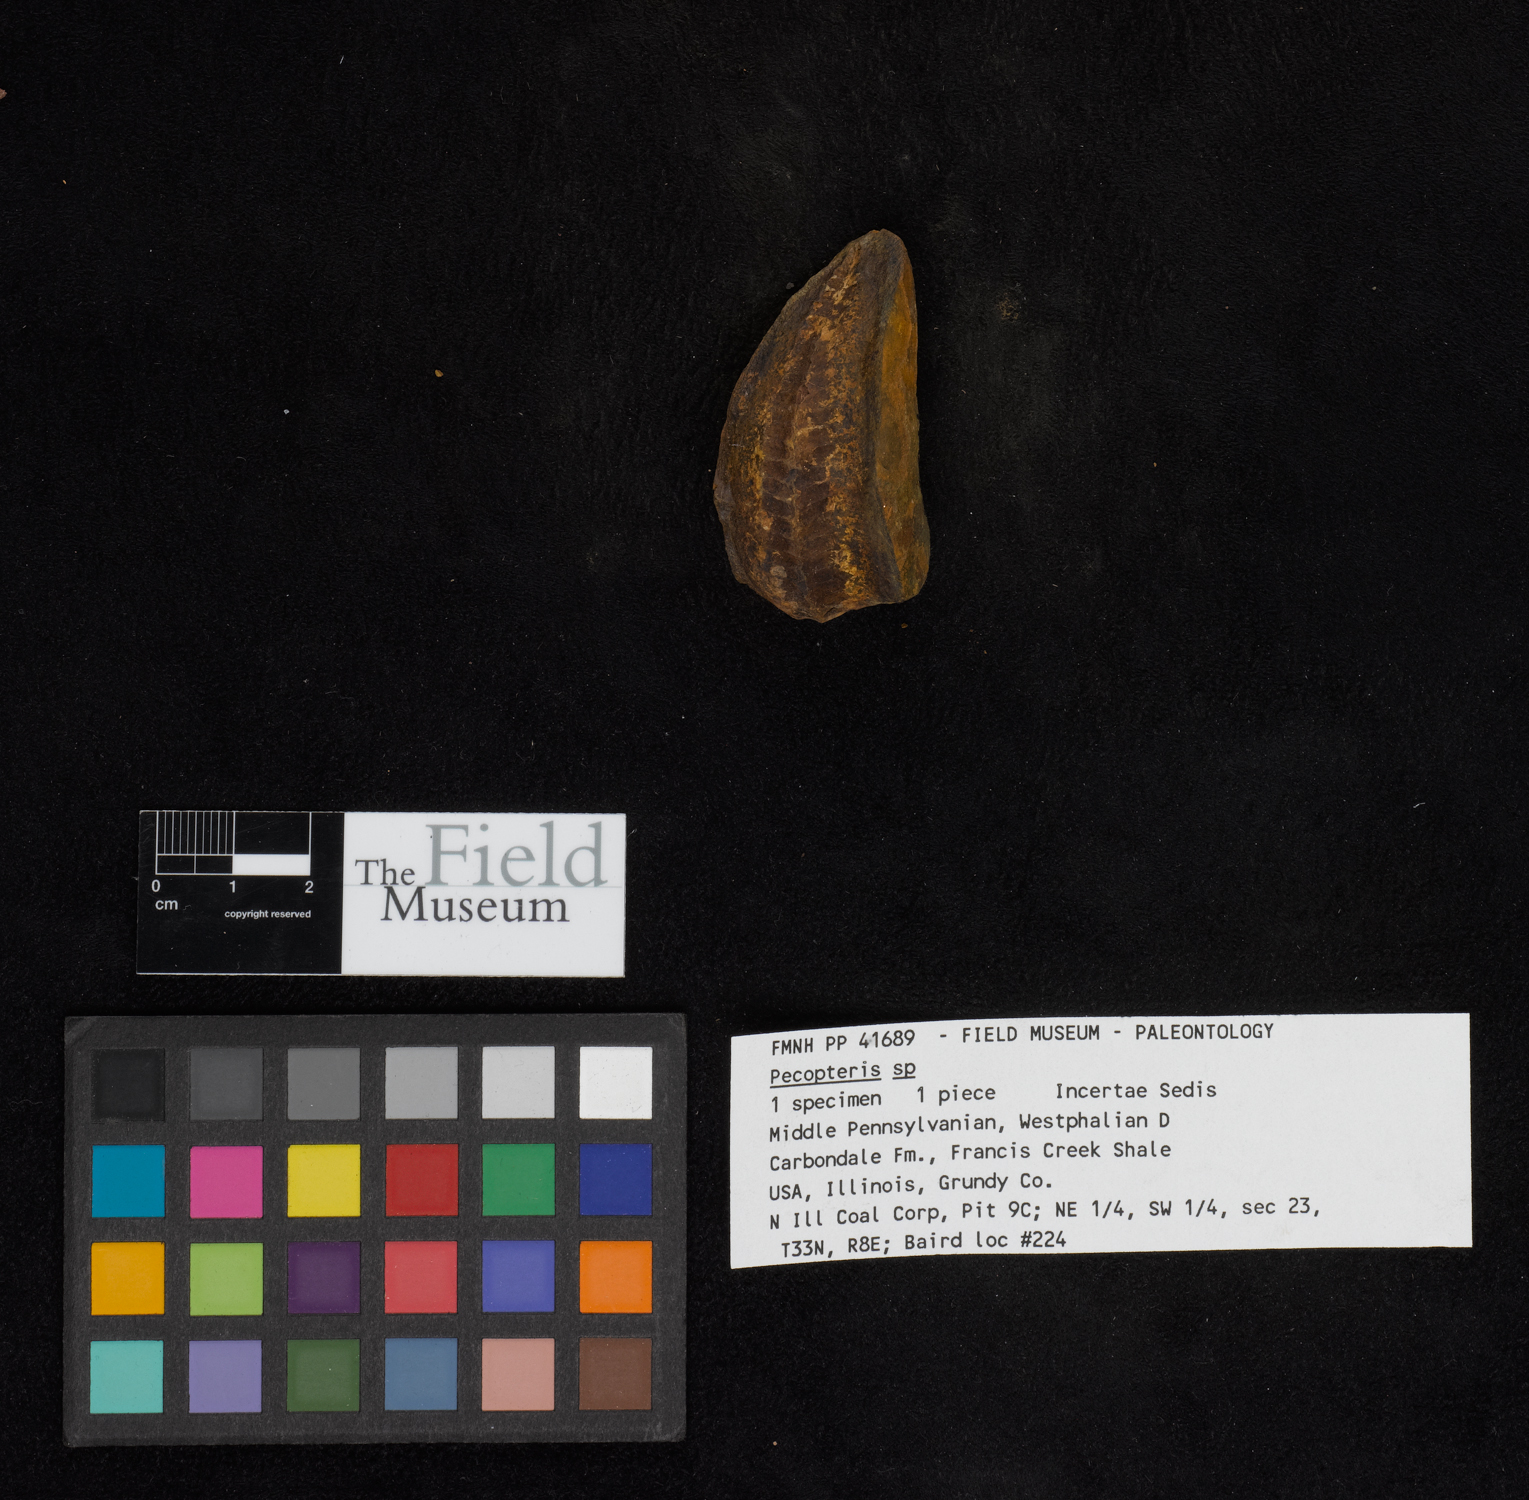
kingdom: Plantae
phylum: Tracheophyta
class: Polypodiopsida
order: Marattiales
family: Asterothecaceae
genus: Pecopteris
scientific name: Pecopteris
